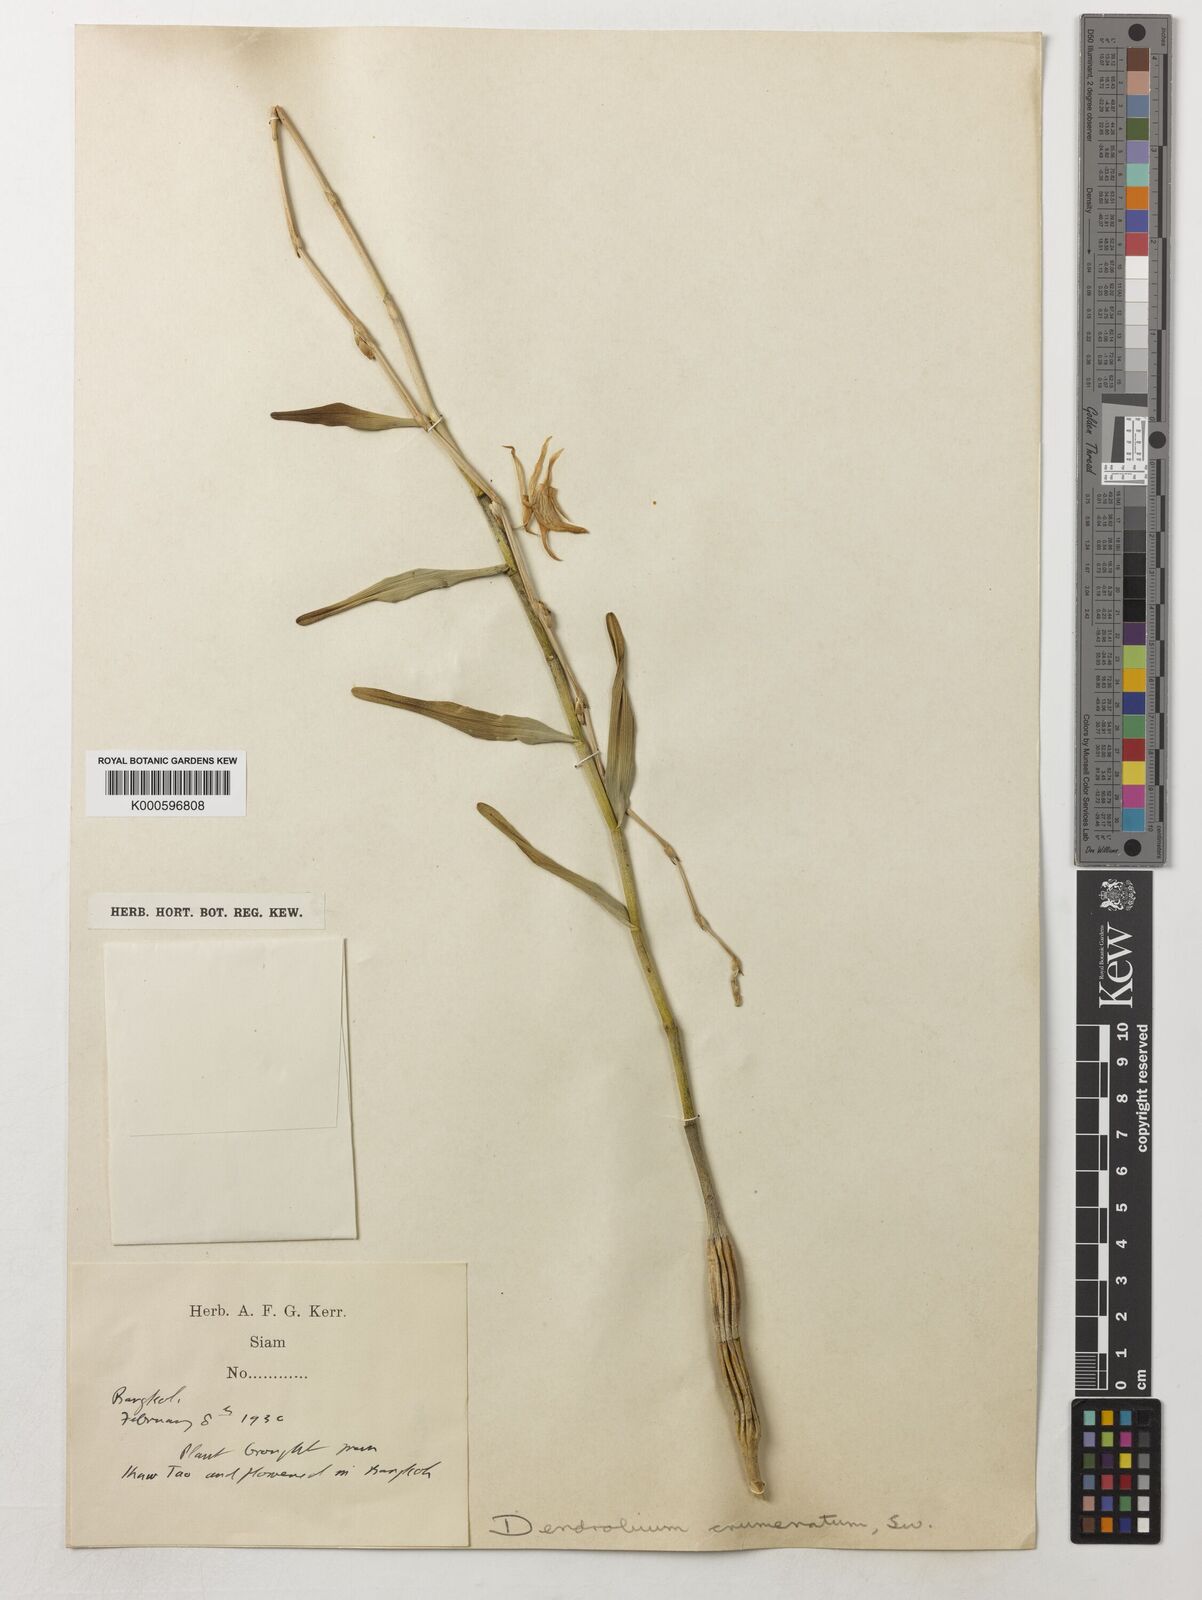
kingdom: Plantae
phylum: Tracheophyta
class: Liliopsida
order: Asparagales
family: Orchidaceae
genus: Dendrobium
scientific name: Dendrobium crumenatum
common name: Orchid
